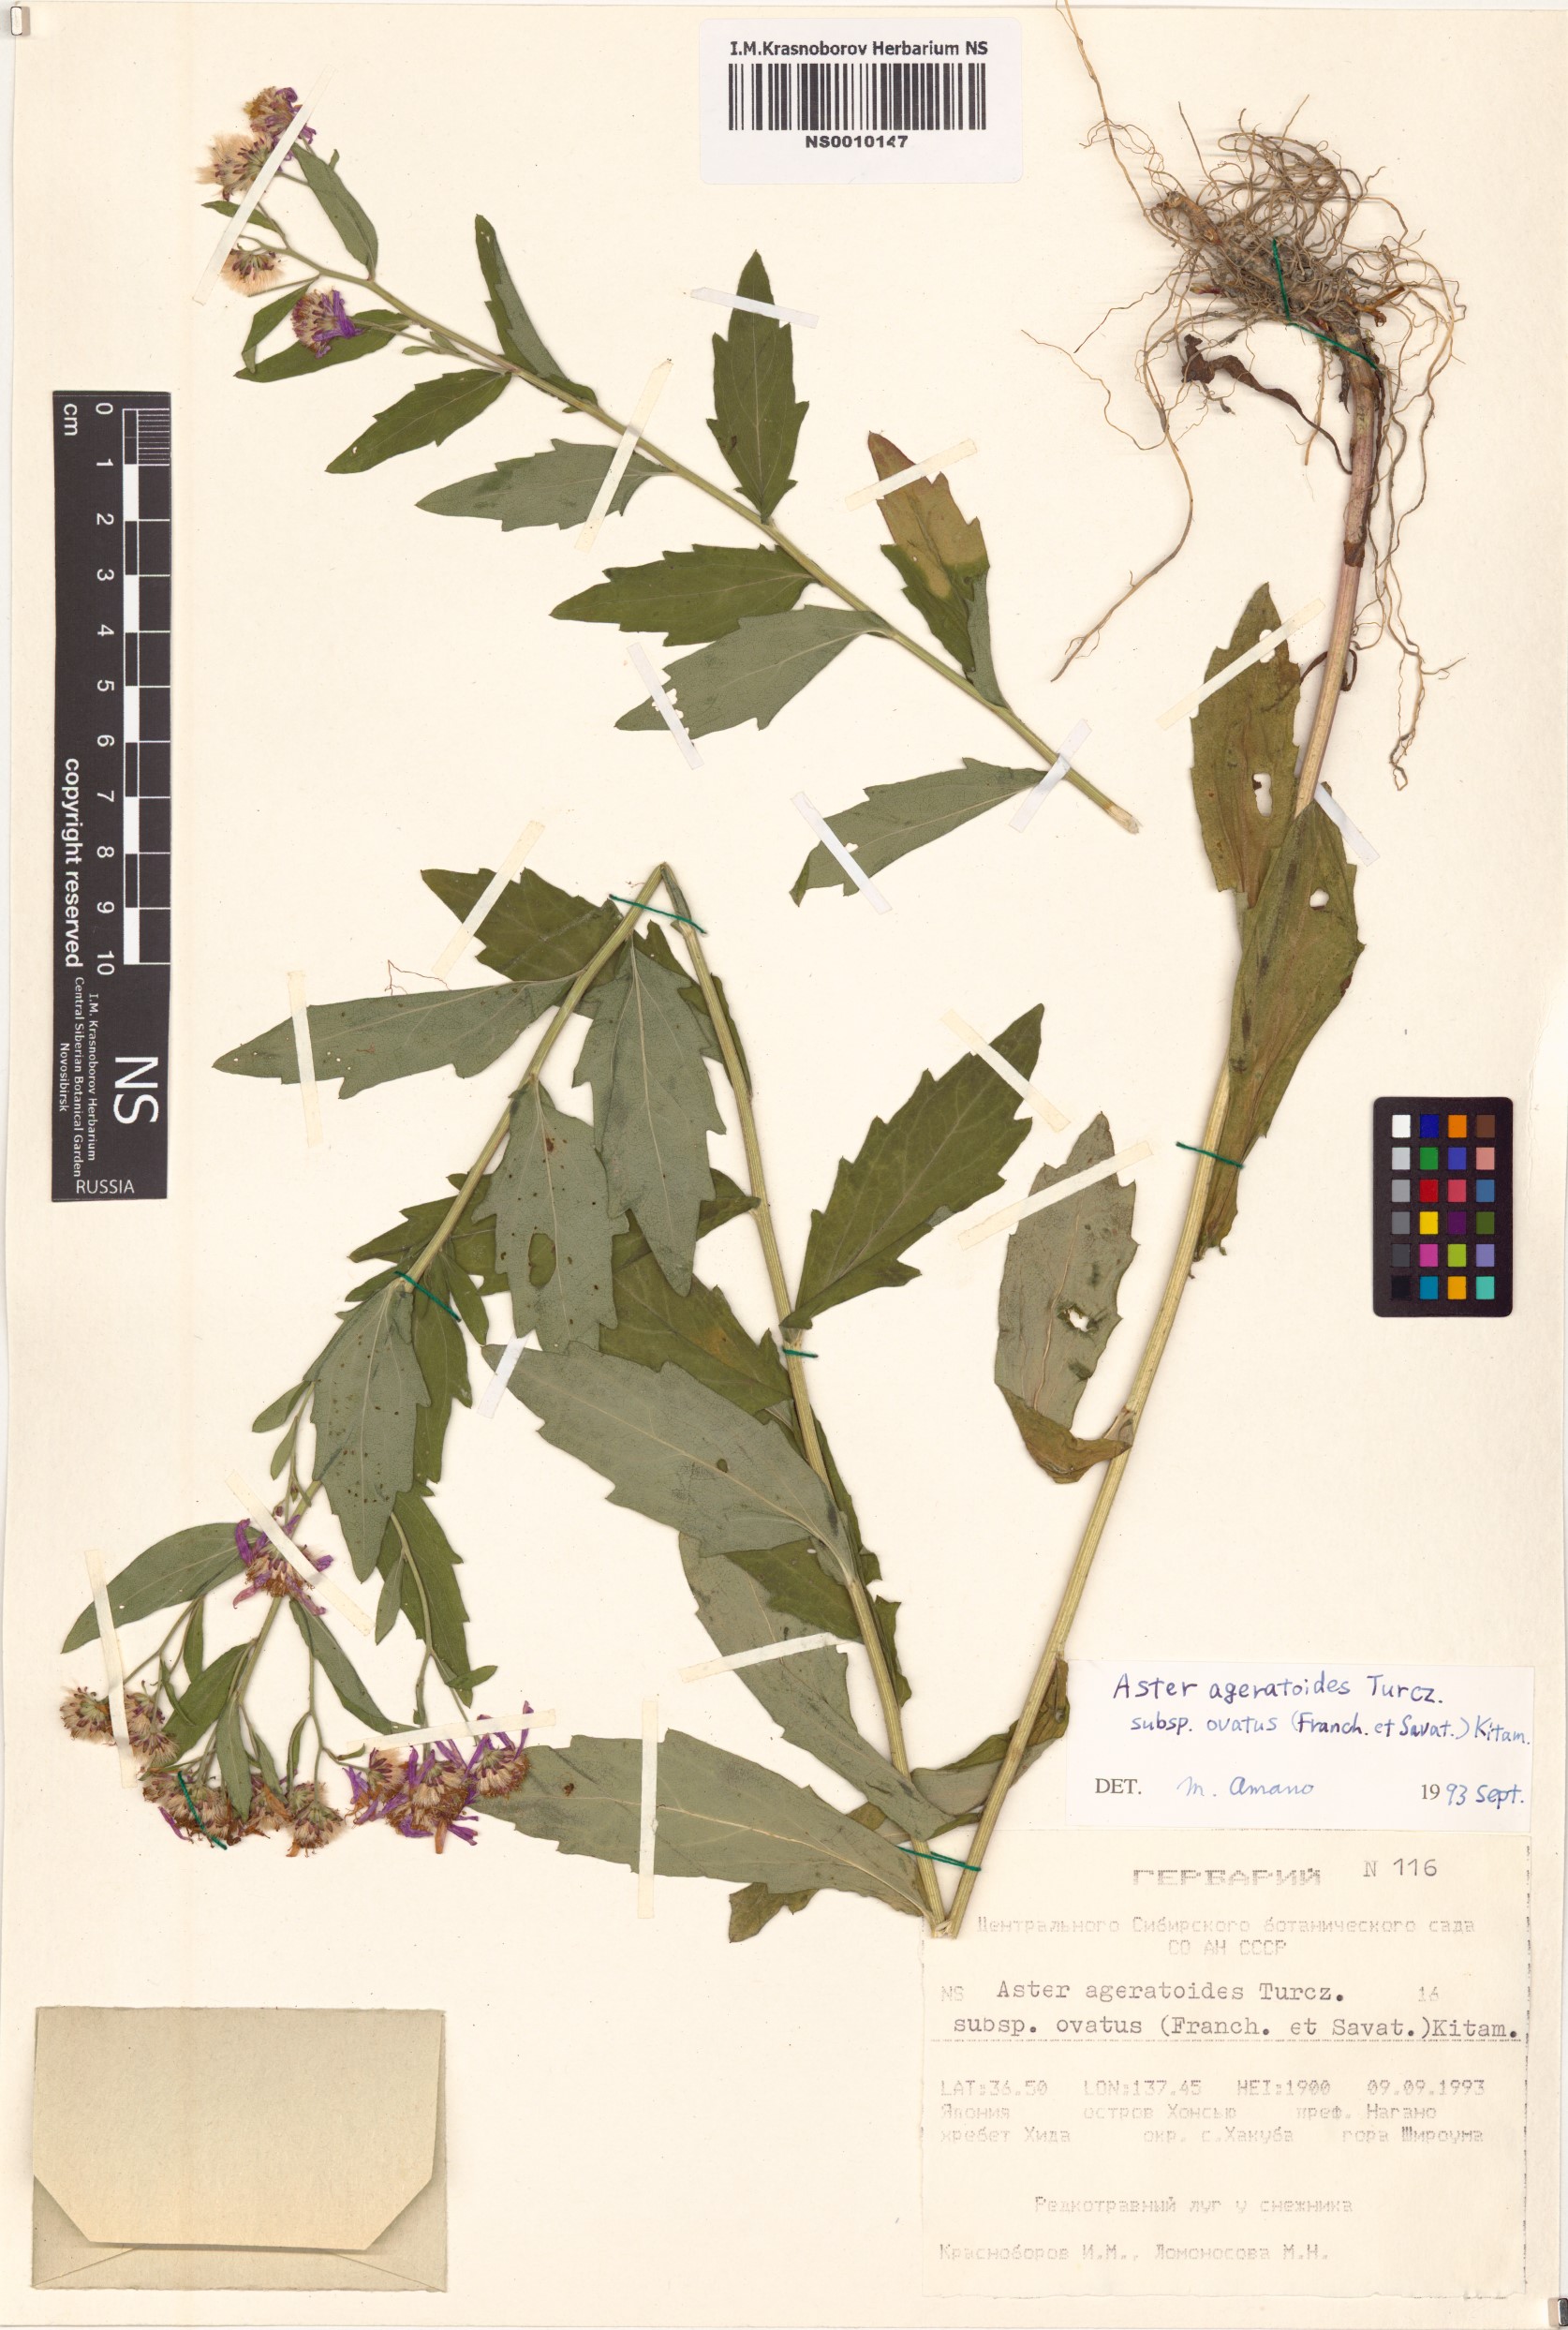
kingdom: Plantae
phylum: Tracheophyta
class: Magnoliopsida
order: Asterales
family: Asteraceae
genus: Aster
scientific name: Aster microcephalus
